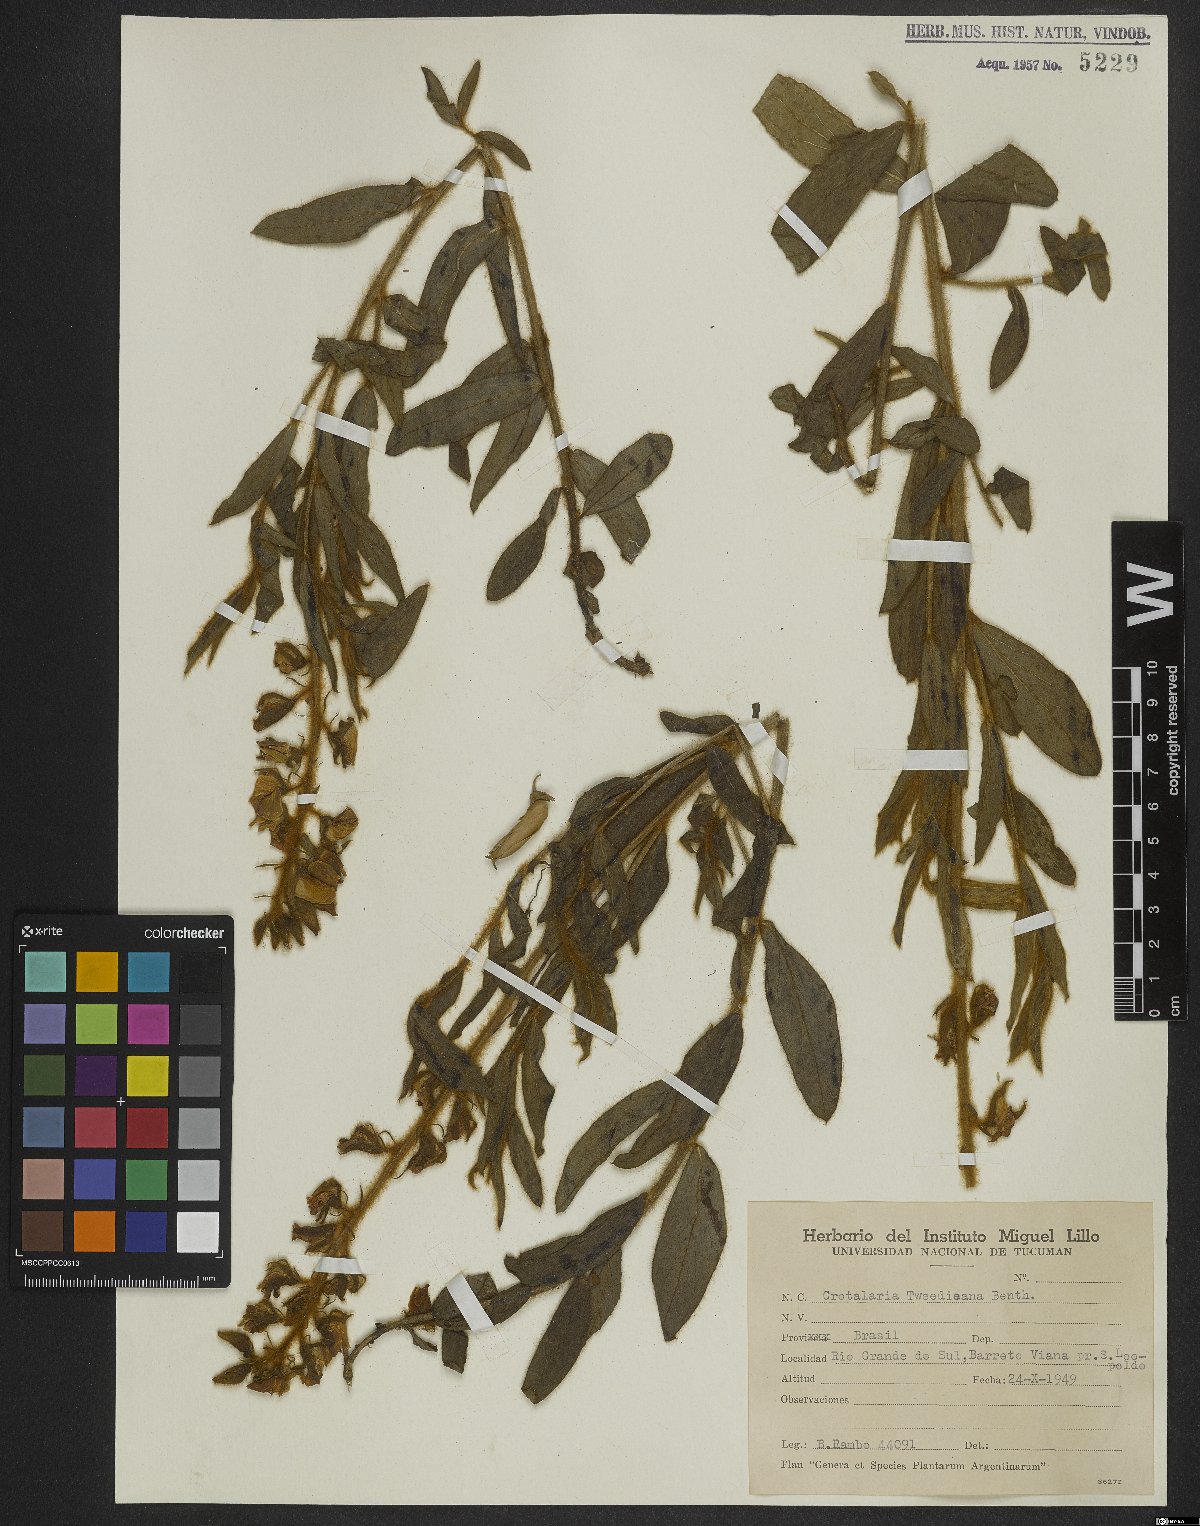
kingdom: Plantae
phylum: Tracheophyta
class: Magnoliopsida
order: Fabales
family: Fabaceae
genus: Crotalaria
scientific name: Crotalaria tweediana
